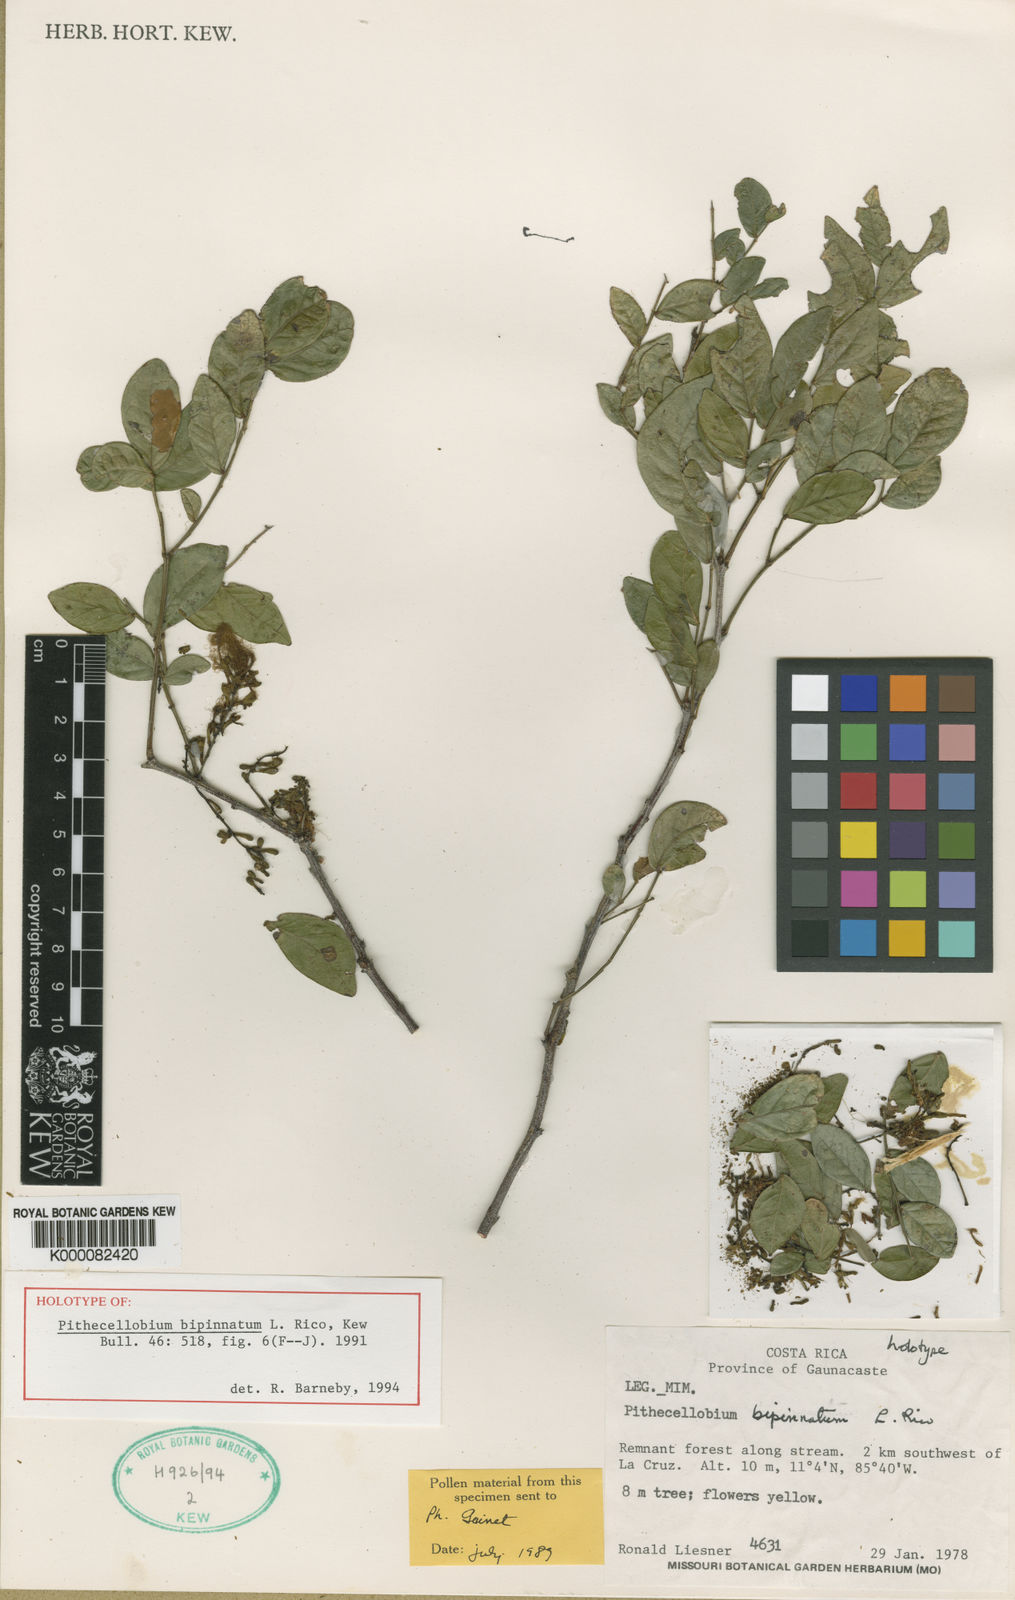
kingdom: Plantae
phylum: Tracheophyta
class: Magnoliopsida
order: Fabales
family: Fabaceae
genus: Pithecellobium
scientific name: Pithecellobium bipinnatum
